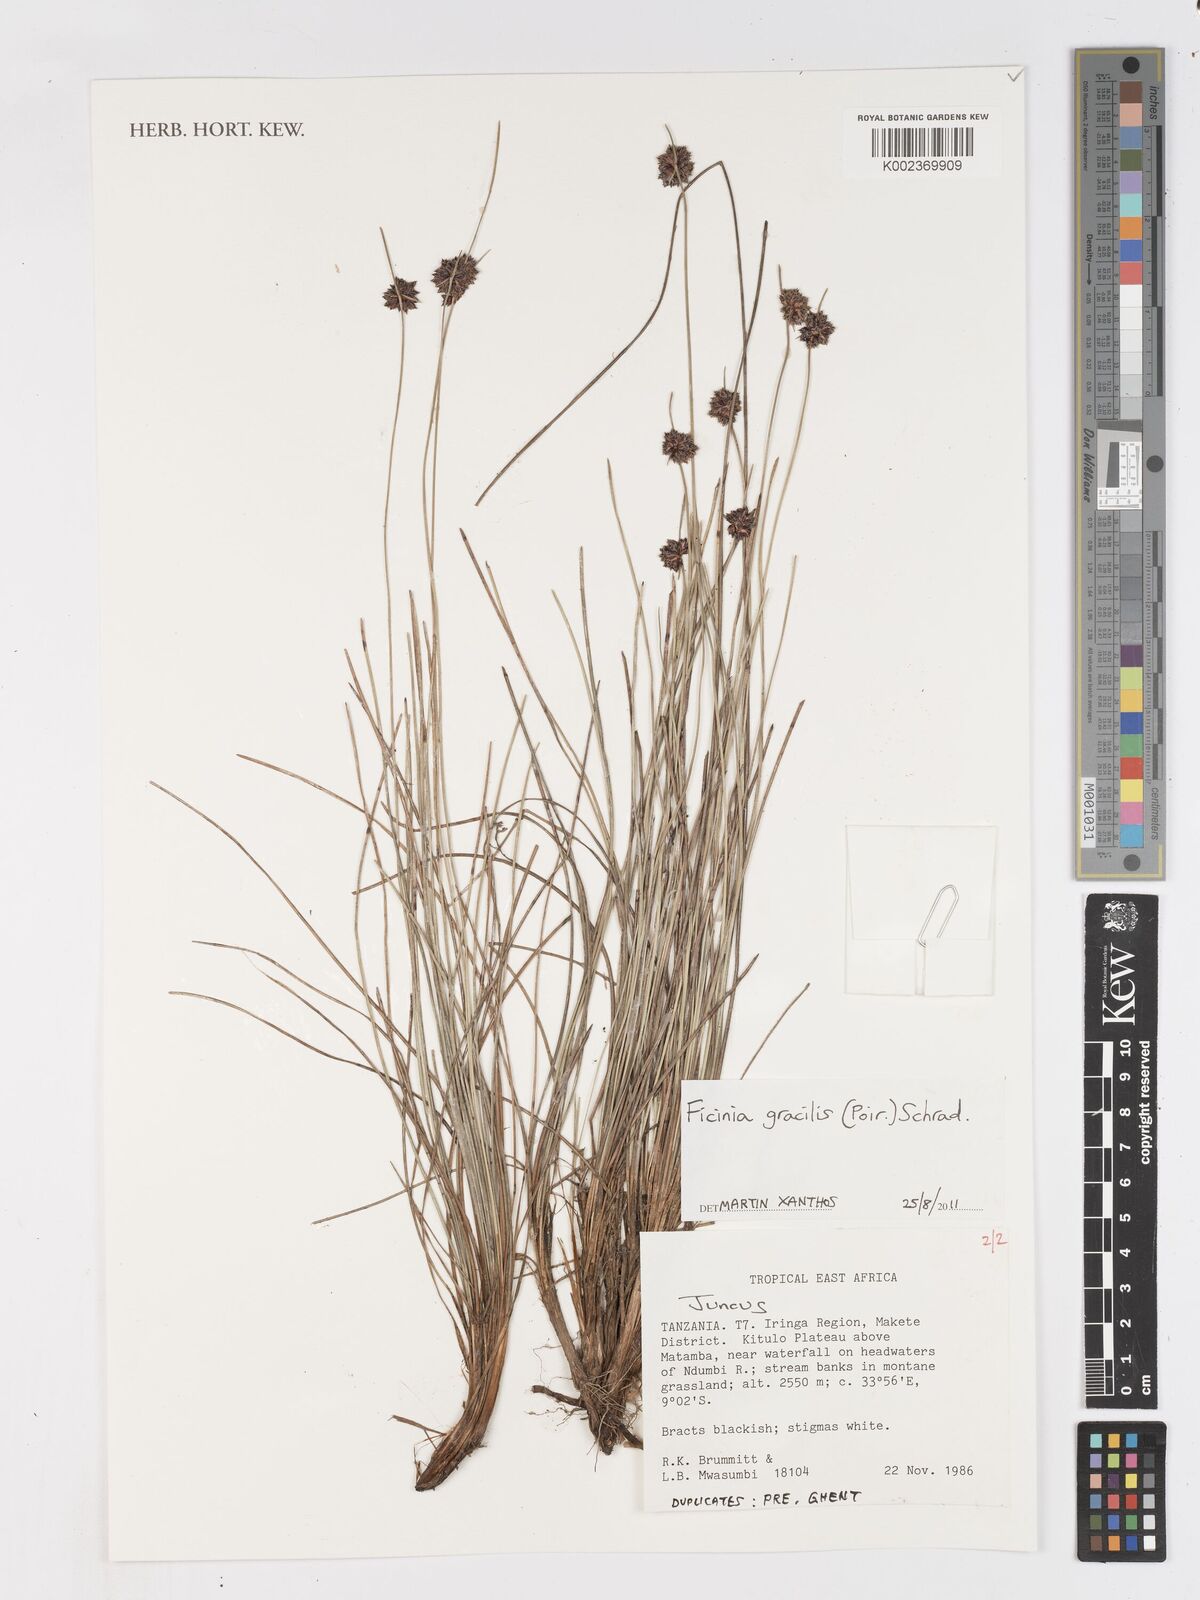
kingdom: Plantae
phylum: Tracheophyta
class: Liliopsida
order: Poales
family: Cyperaceae
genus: Ficinia
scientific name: Ficinia gracilis
